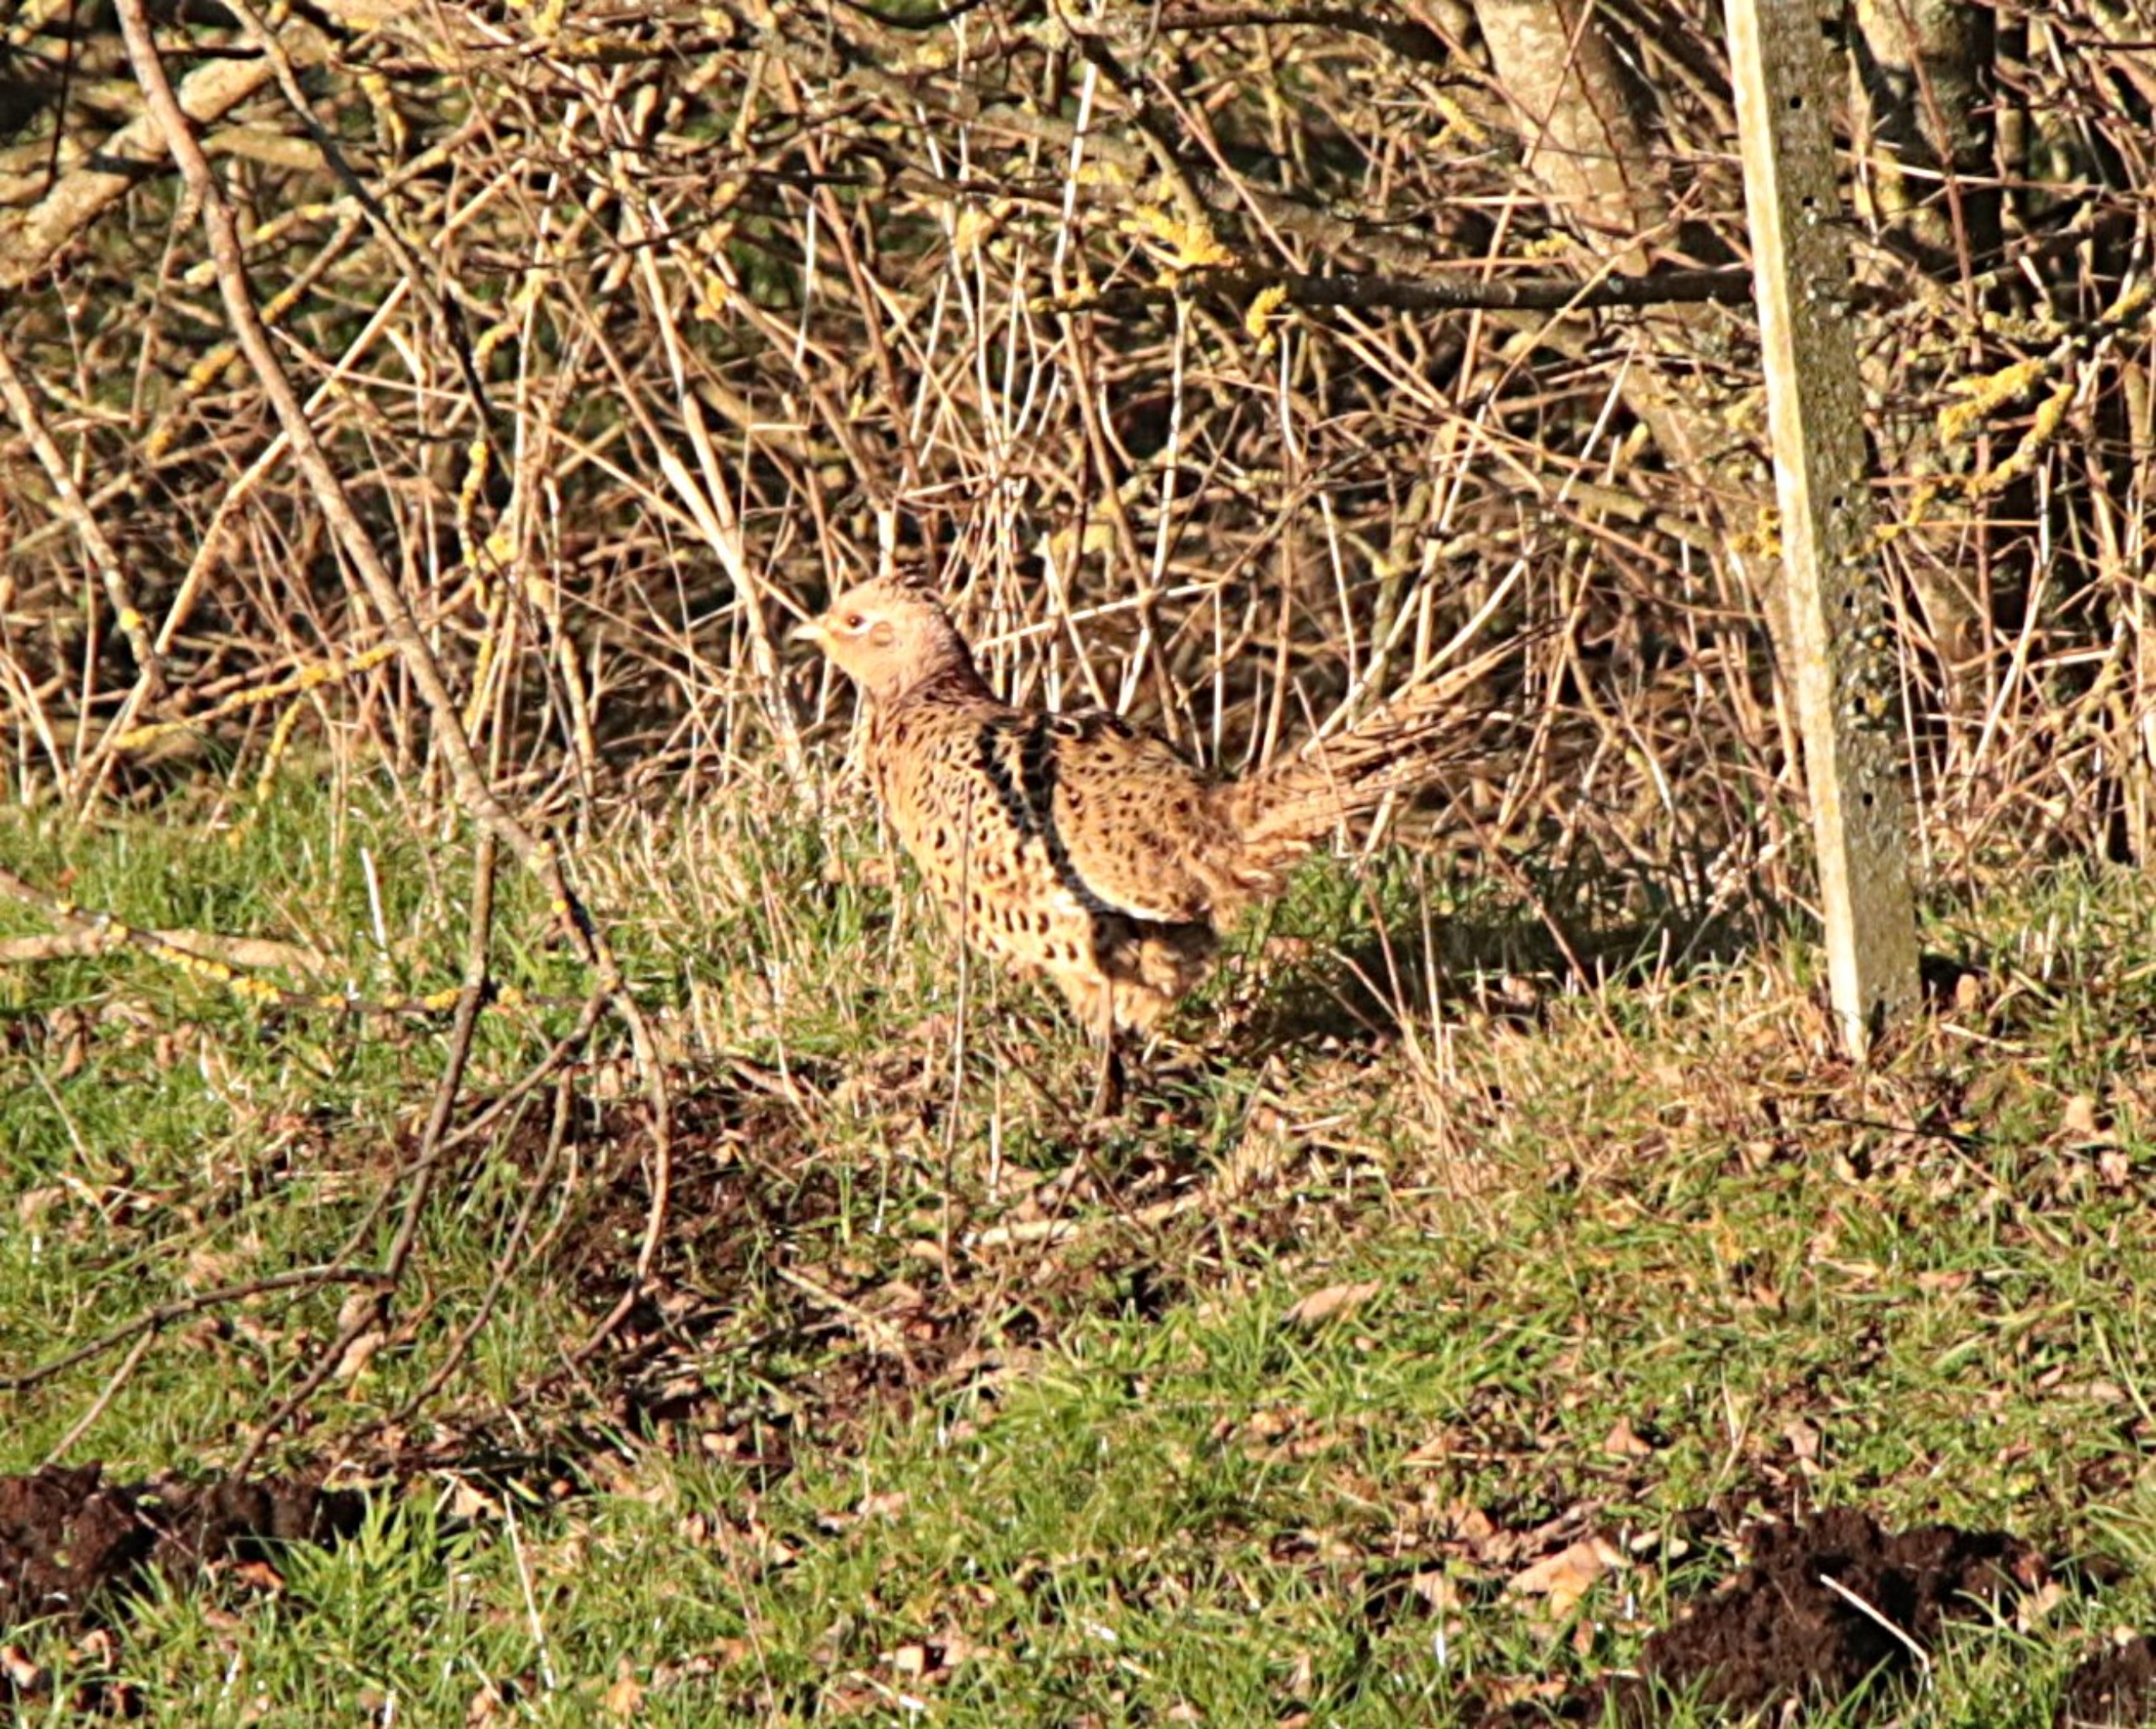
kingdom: Animalia
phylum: Chordata
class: Aves
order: Galliformes
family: Phasianidae
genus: Phasianus
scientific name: Phasianus colchicus
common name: Fasan
